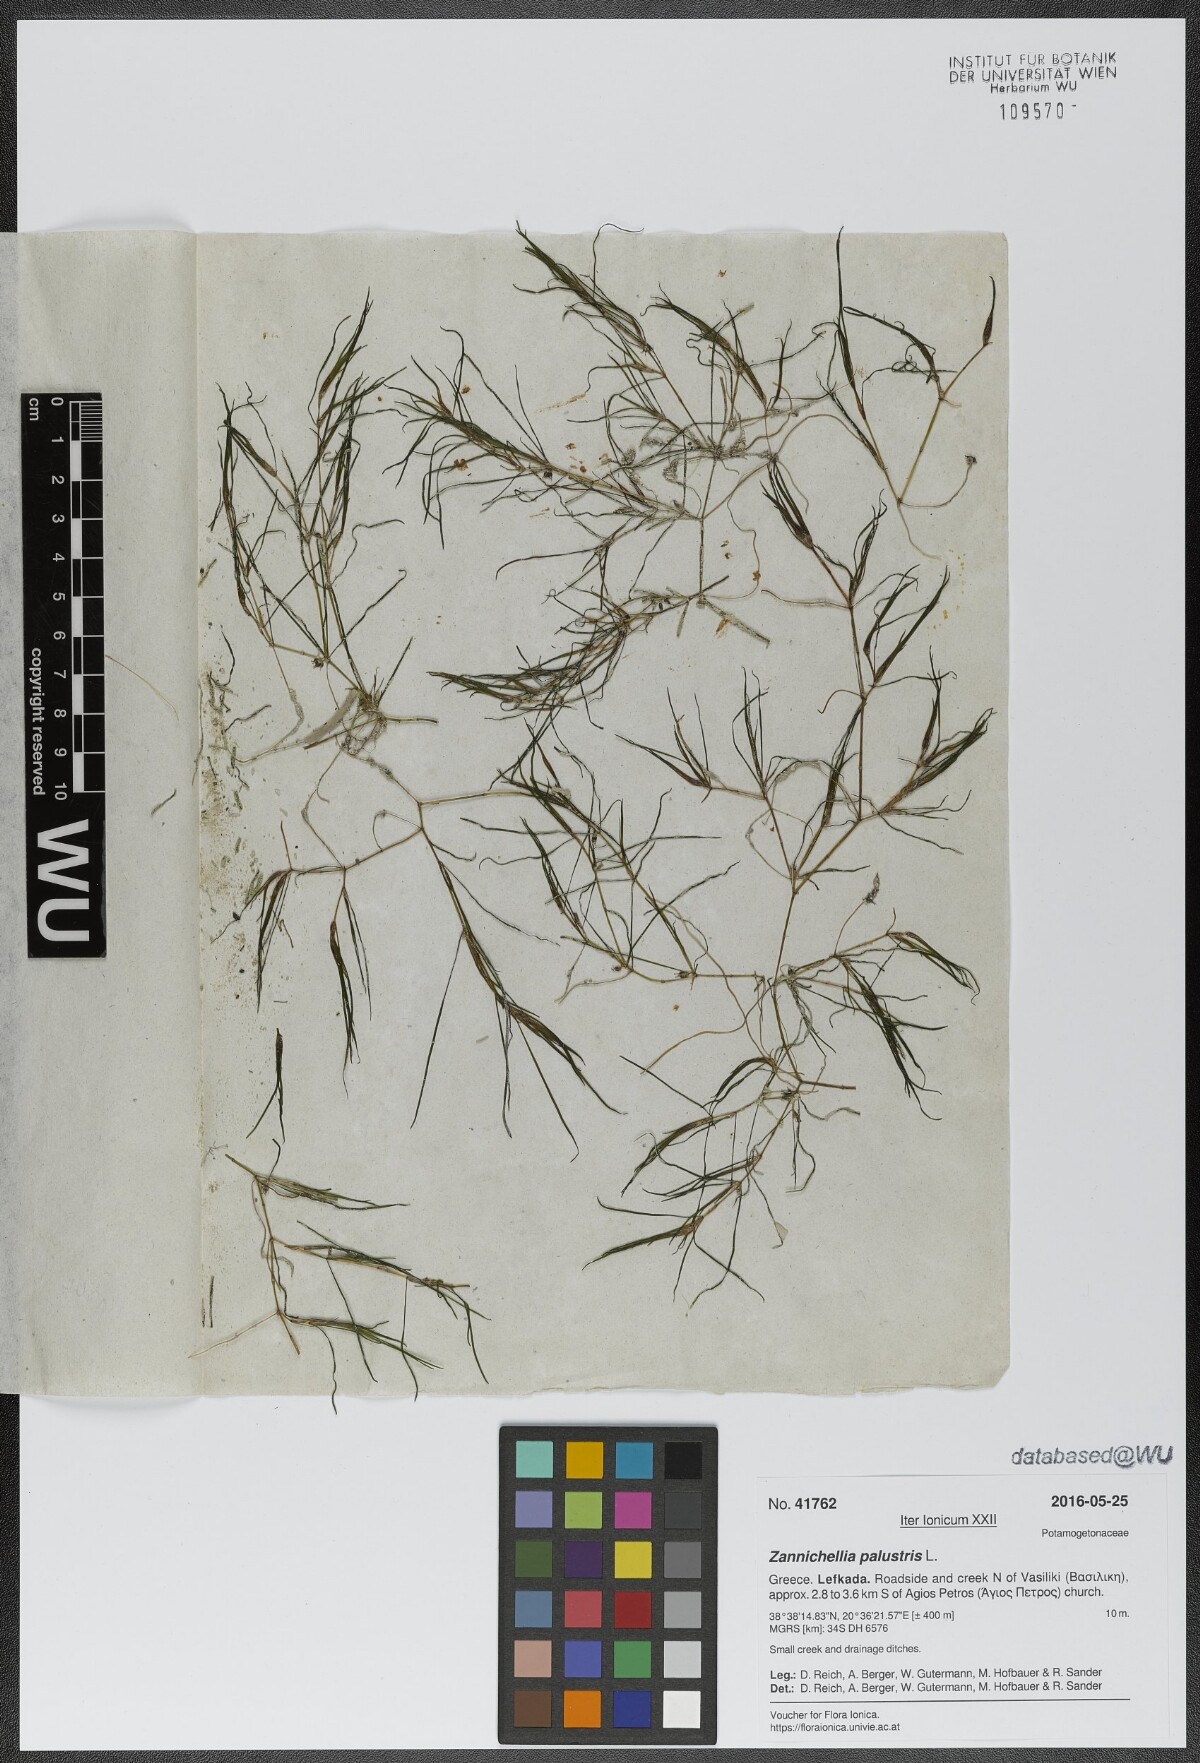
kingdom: Plantae
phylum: Tracheophyta
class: Liliopsida
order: Alismatales
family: Potamogetonaceae
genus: Zannichellia
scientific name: Zannichellia palustris
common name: Horned pondweed
